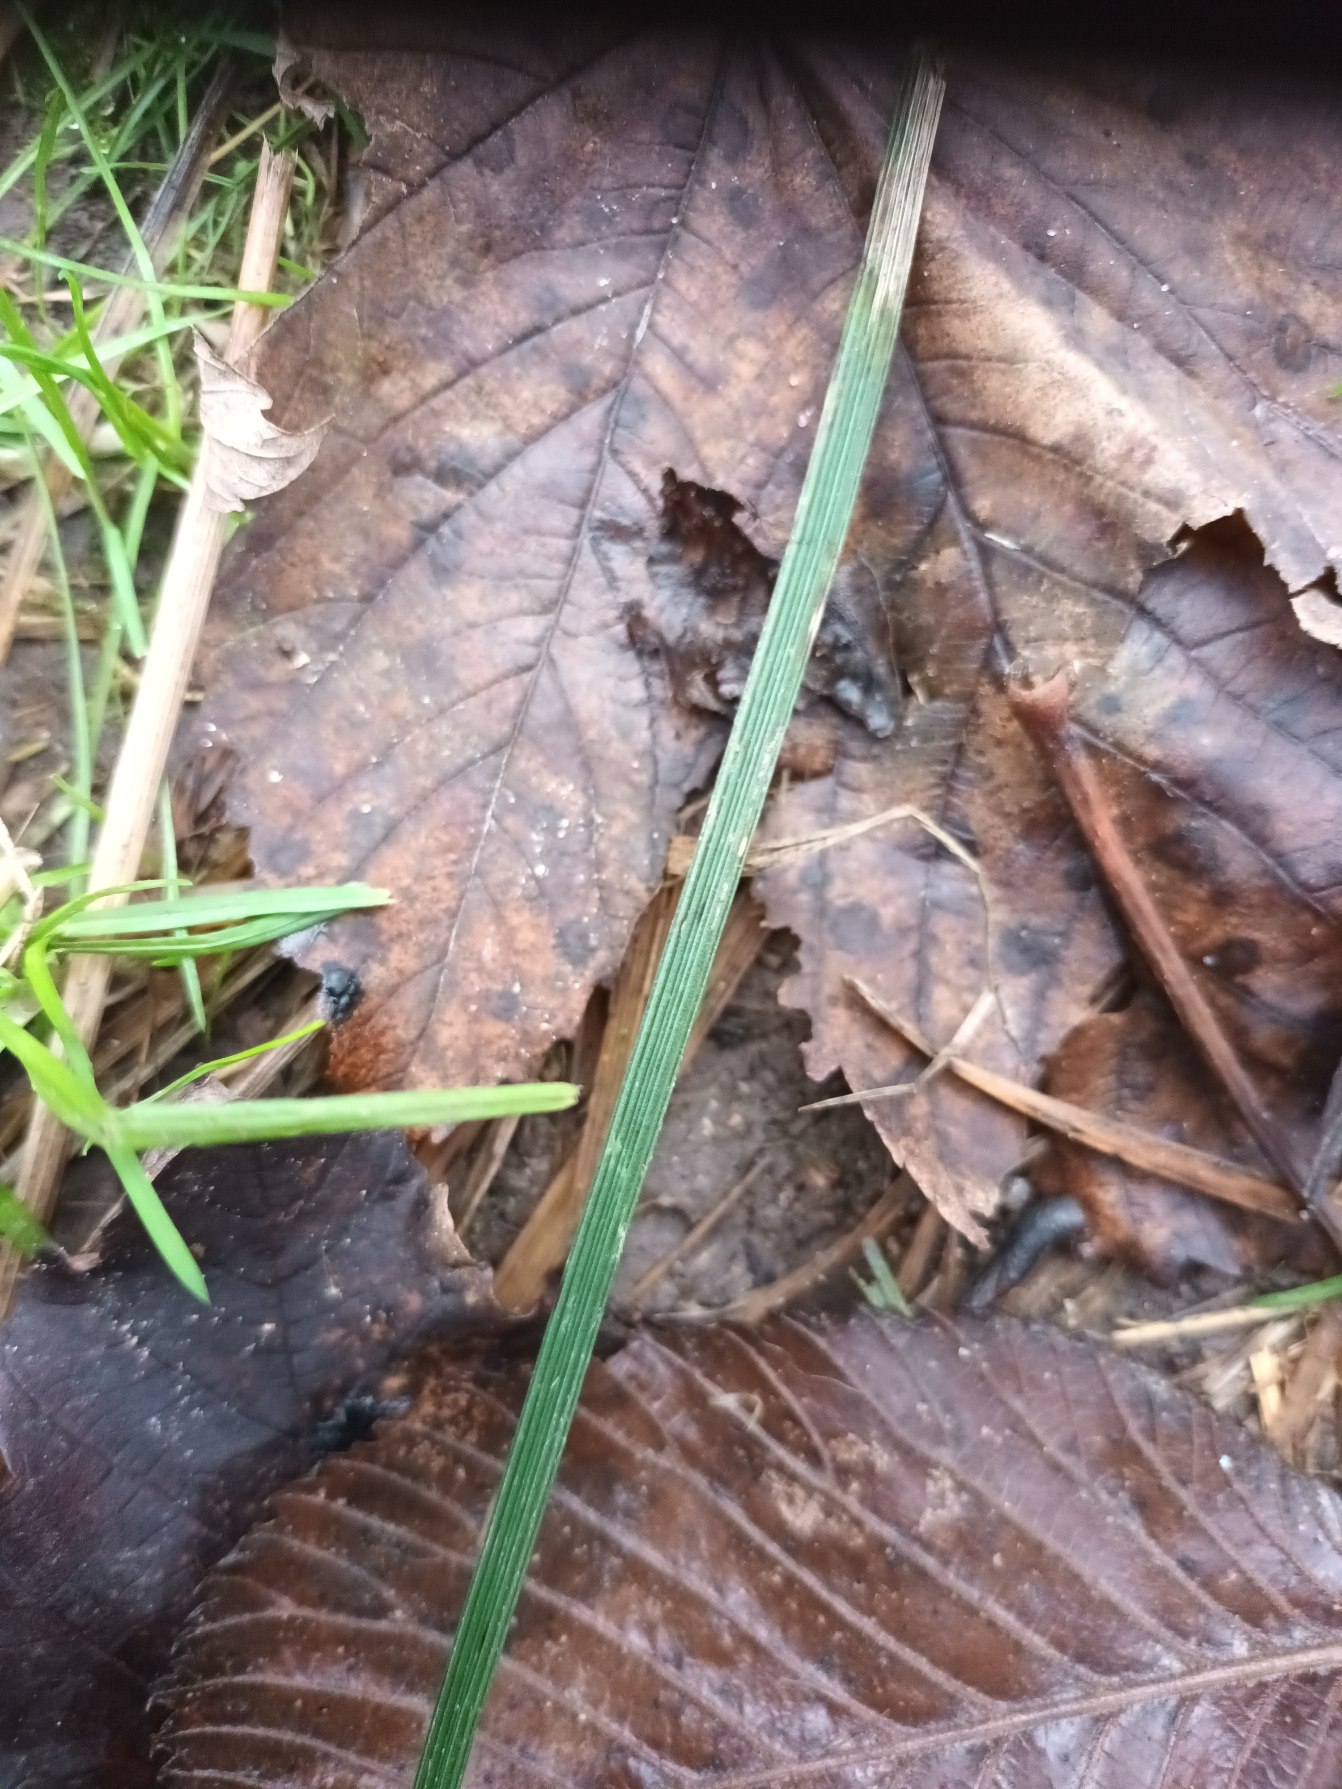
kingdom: Plantae
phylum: Tracheophyta
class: Liliopsida
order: Poales
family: Poaceae
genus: Deschampsia
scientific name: Deschampsia cespitosa
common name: Mose-bunke
